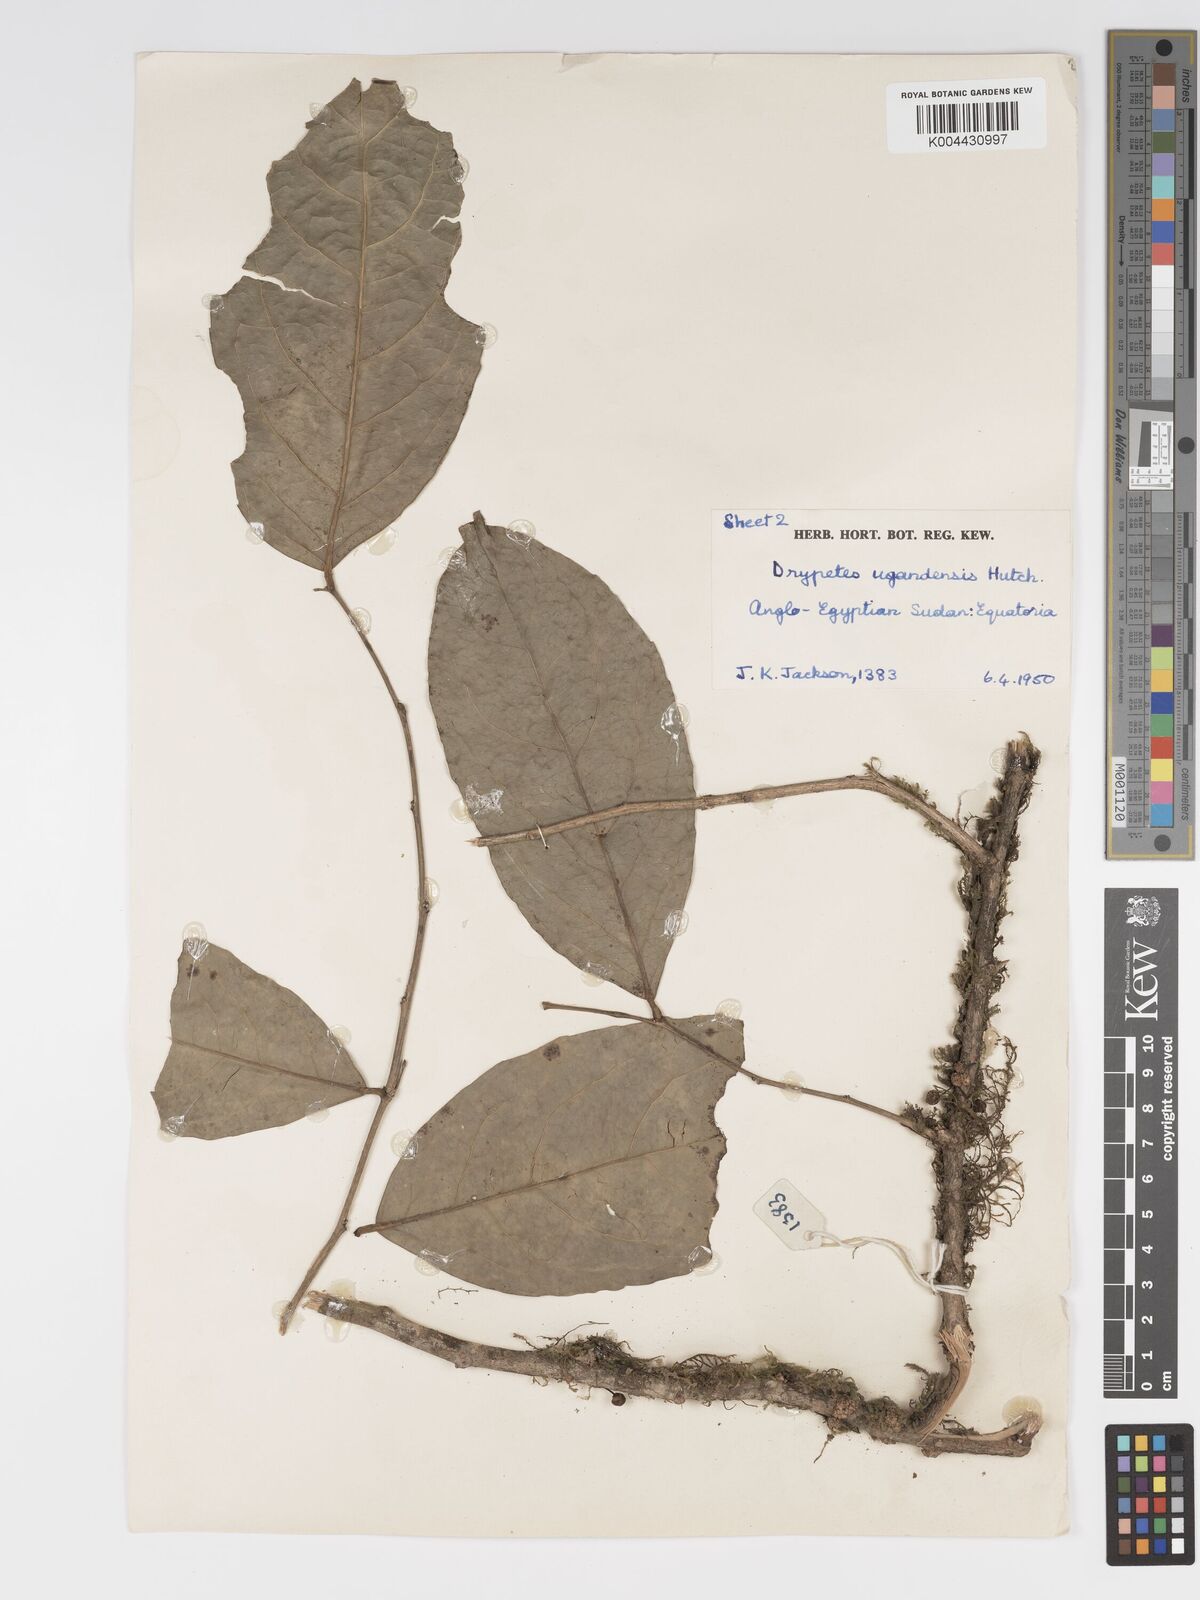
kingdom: Plantae
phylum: Tracheophyta
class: Magnoliopsida
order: Malpighiales
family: Putranjivaceae
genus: Drypetes
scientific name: Drypetes ugandensis
